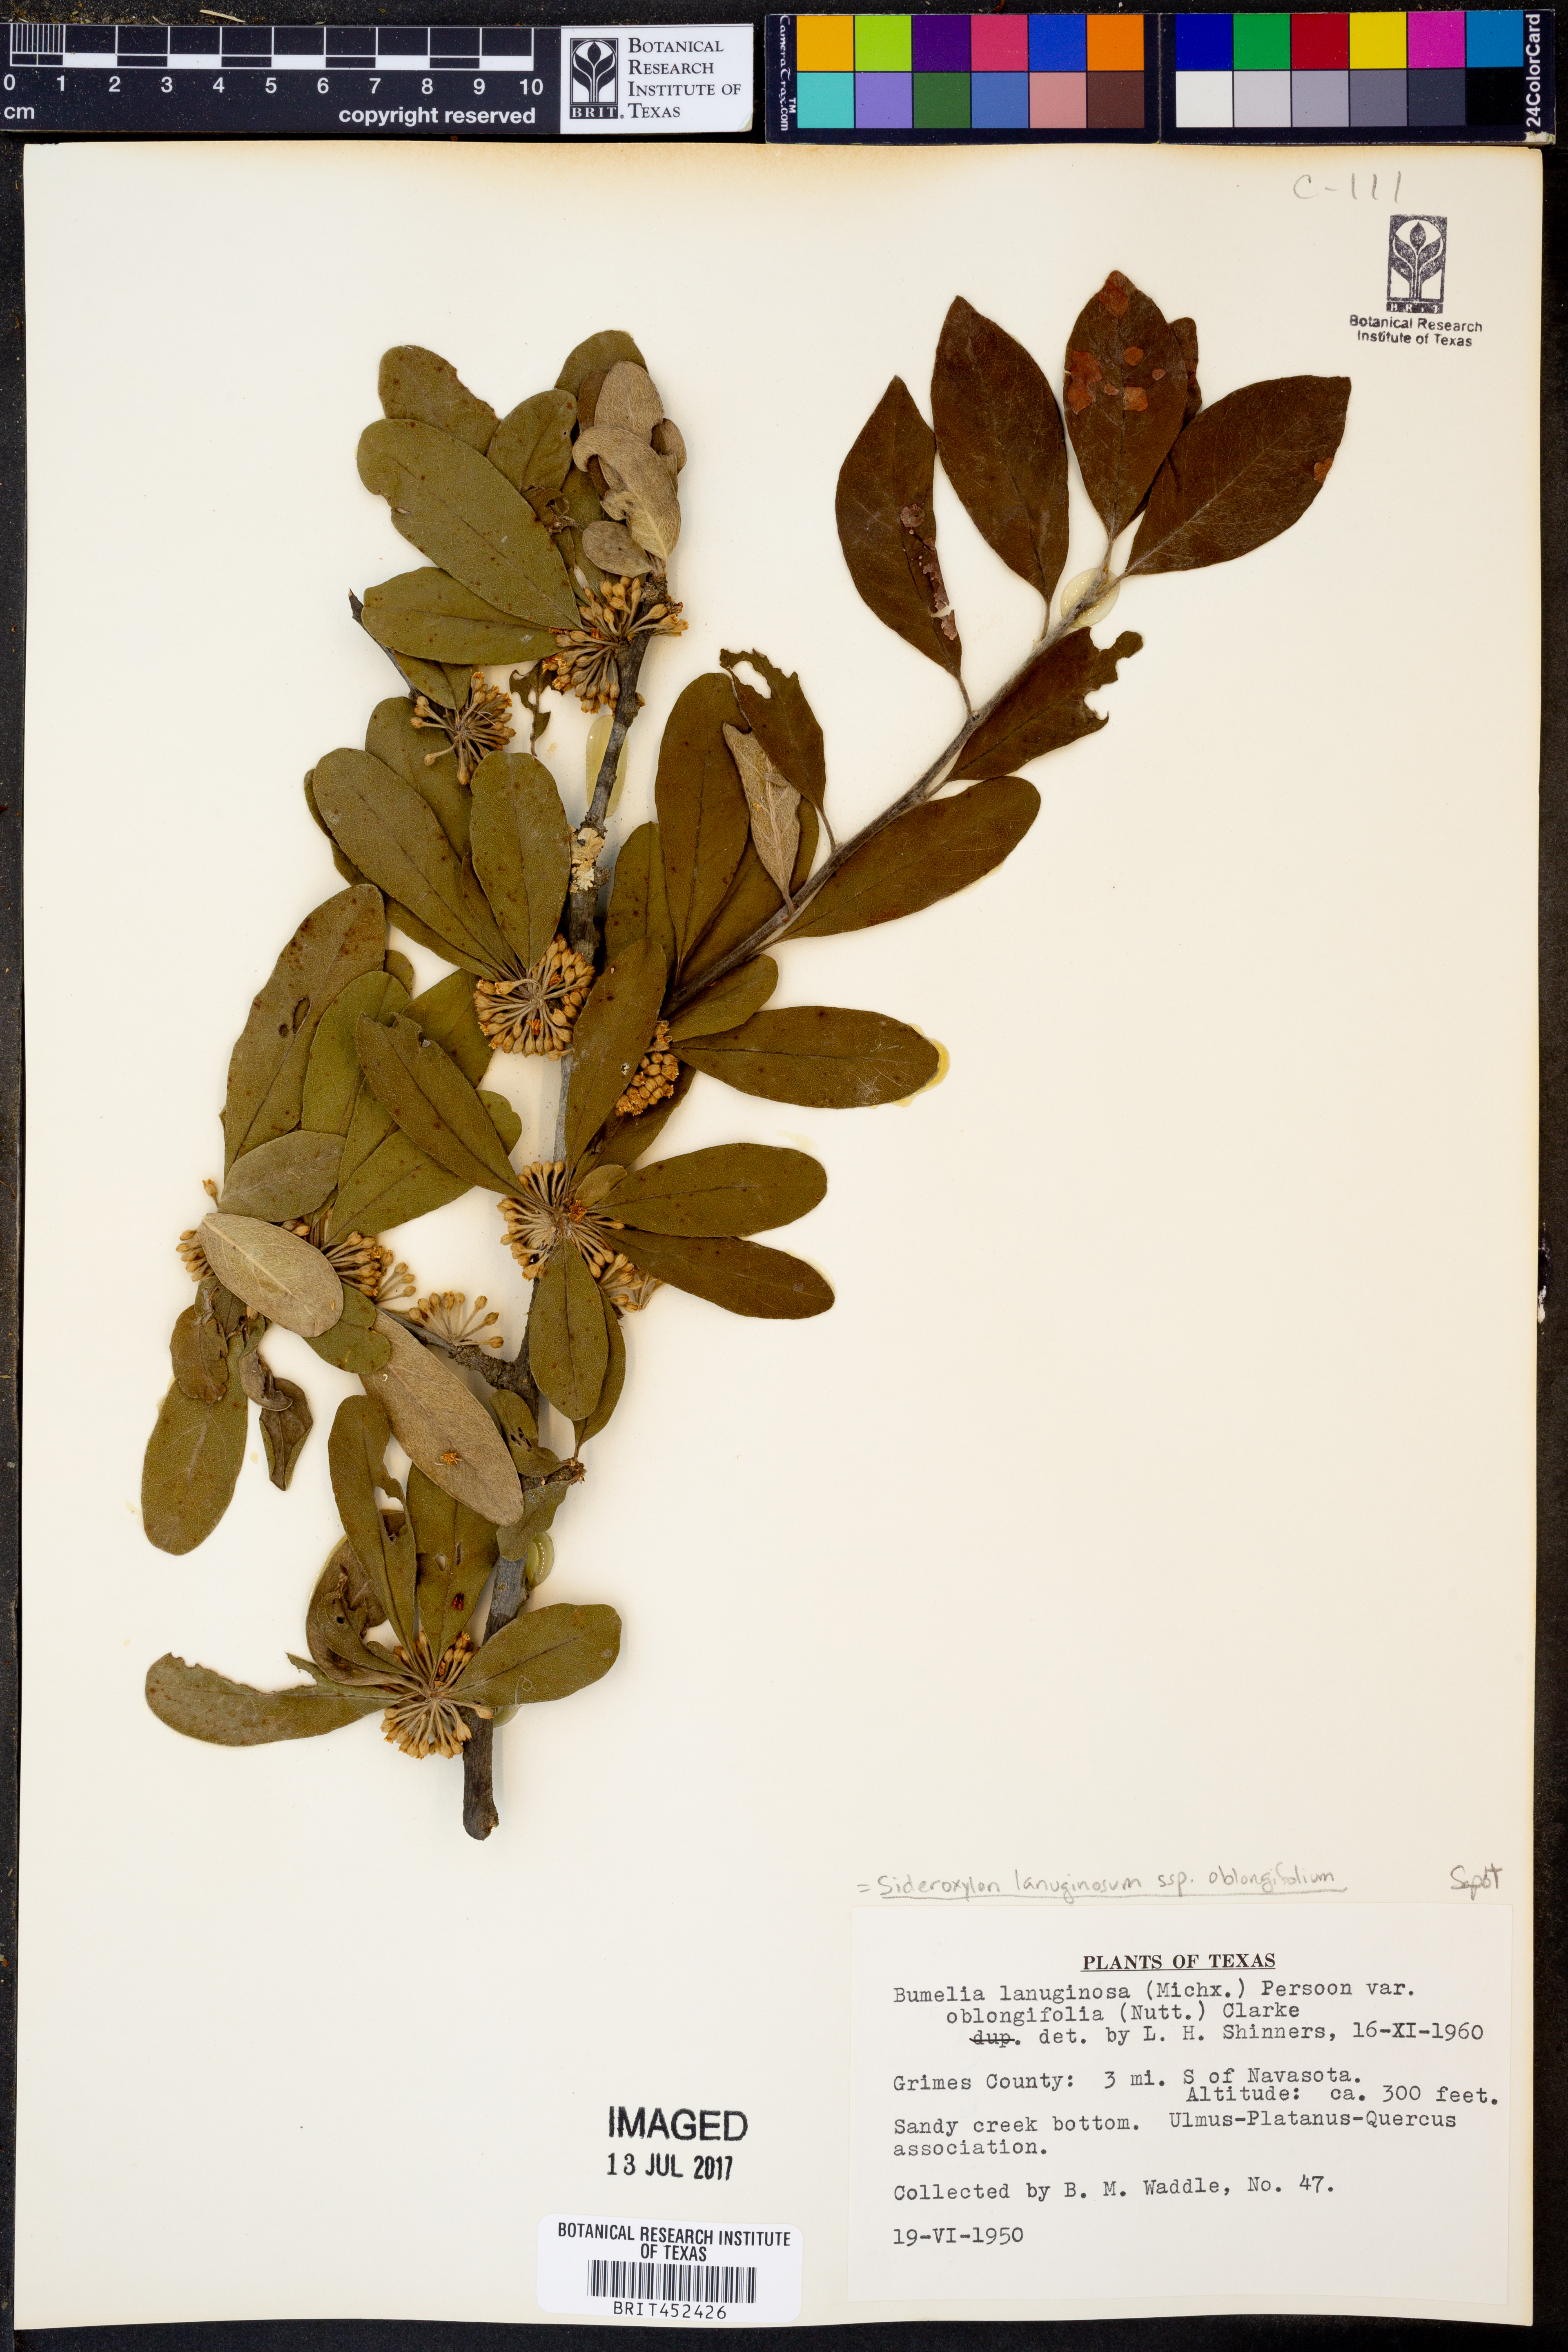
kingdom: Plantae
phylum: Tracheophyta
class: Magnoliopsida
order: Ericales
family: Sapotaceae
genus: Sideroxylon
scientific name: Sideroxylon lanuginosum
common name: Chittamwood
